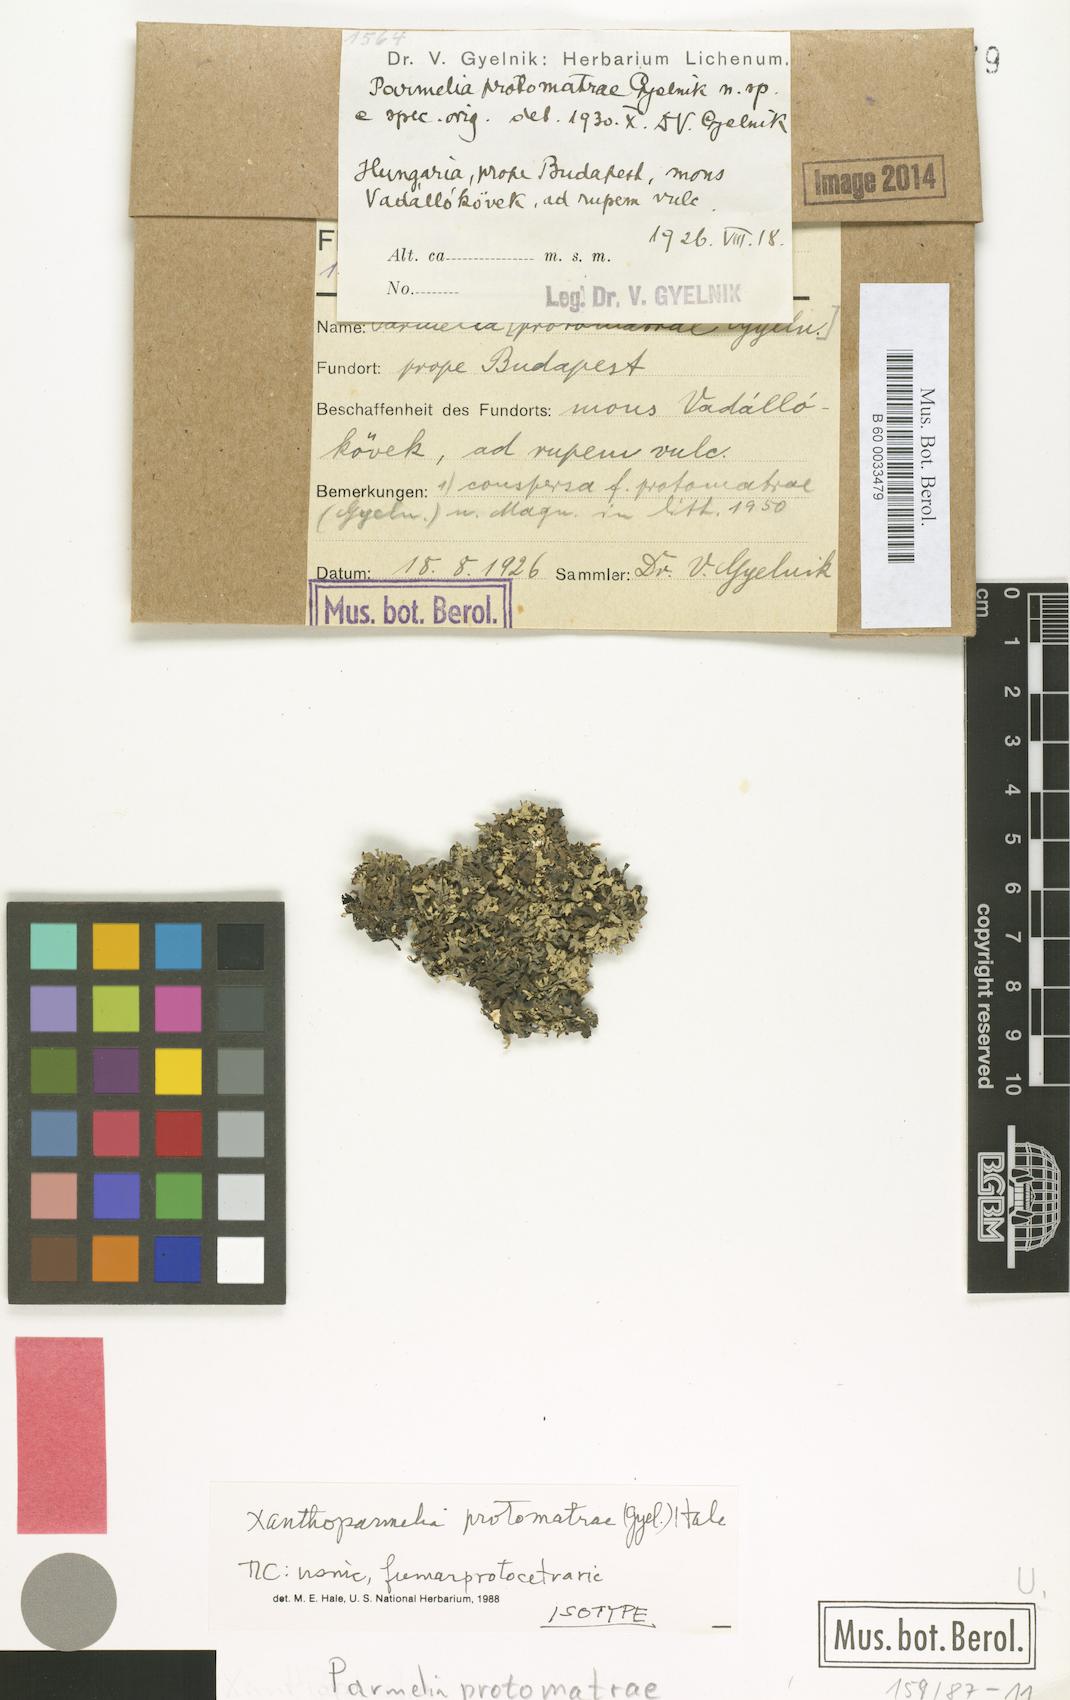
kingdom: Fungi
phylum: Ascomycota
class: Lecanoromycetes
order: Lecanorales
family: Parmeliaceae
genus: Xanthoparmelia
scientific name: Xanthoparmelia protomatrae
